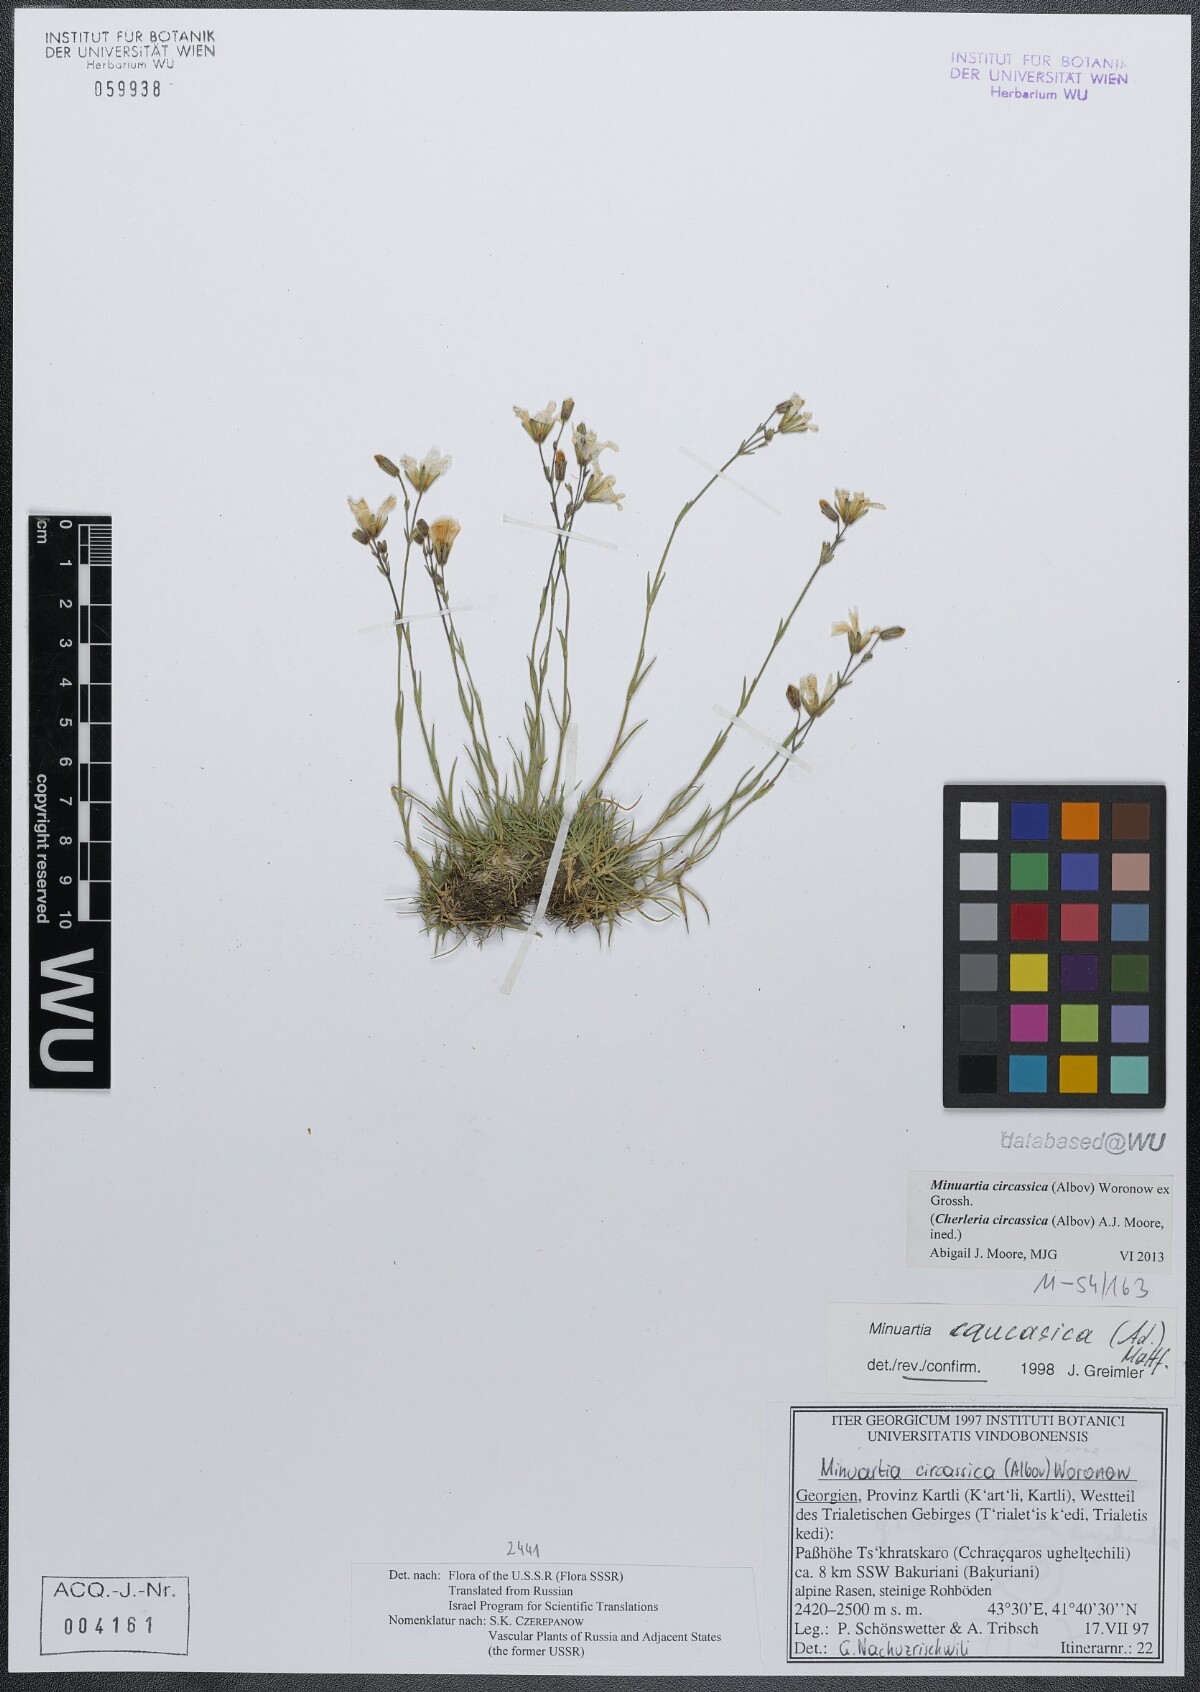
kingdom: Plantae
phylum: Tracheophyta
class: Magnoliopsida
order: Caryophyllales
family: Caryophyllaceae
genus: Cherleria
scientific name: Cherleria circassica
